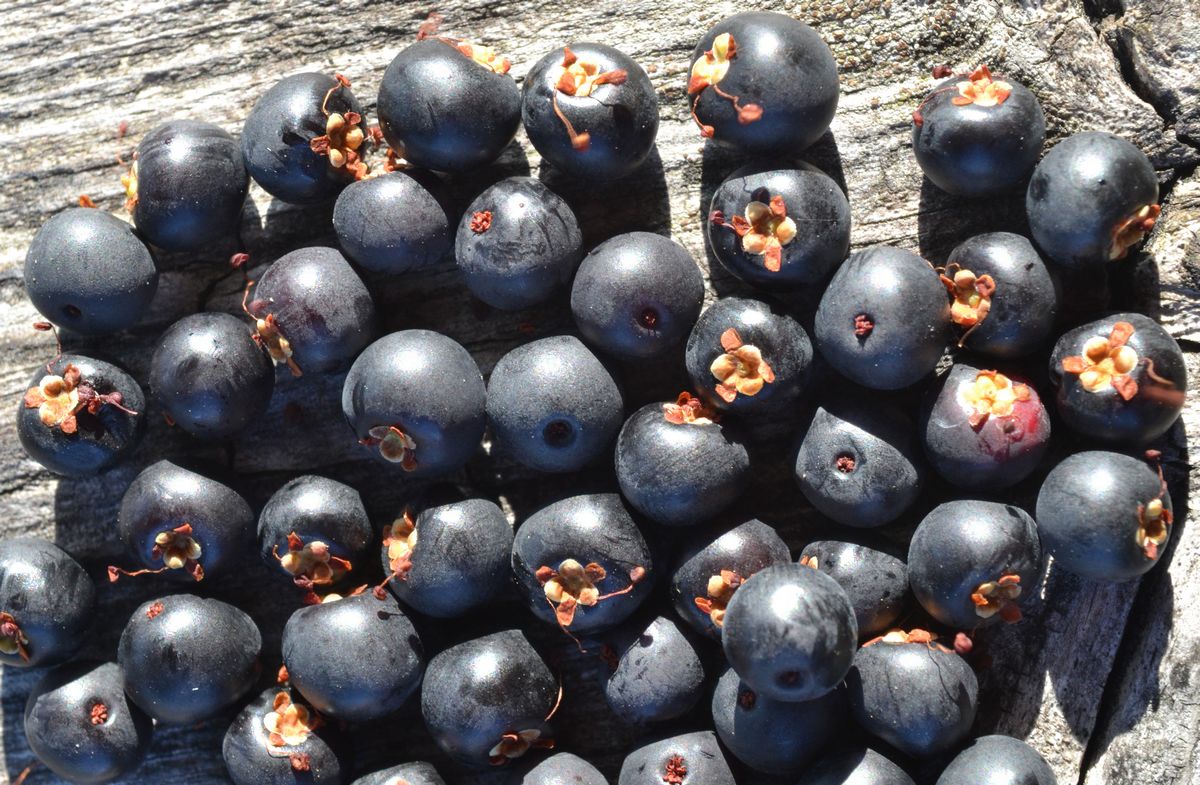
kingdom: Plantae
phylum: Tracheophyta
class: Magnoliopsida
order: Ericales
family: Ericaceae
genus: Empetrum
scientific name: Empetrum hermaphroditum
